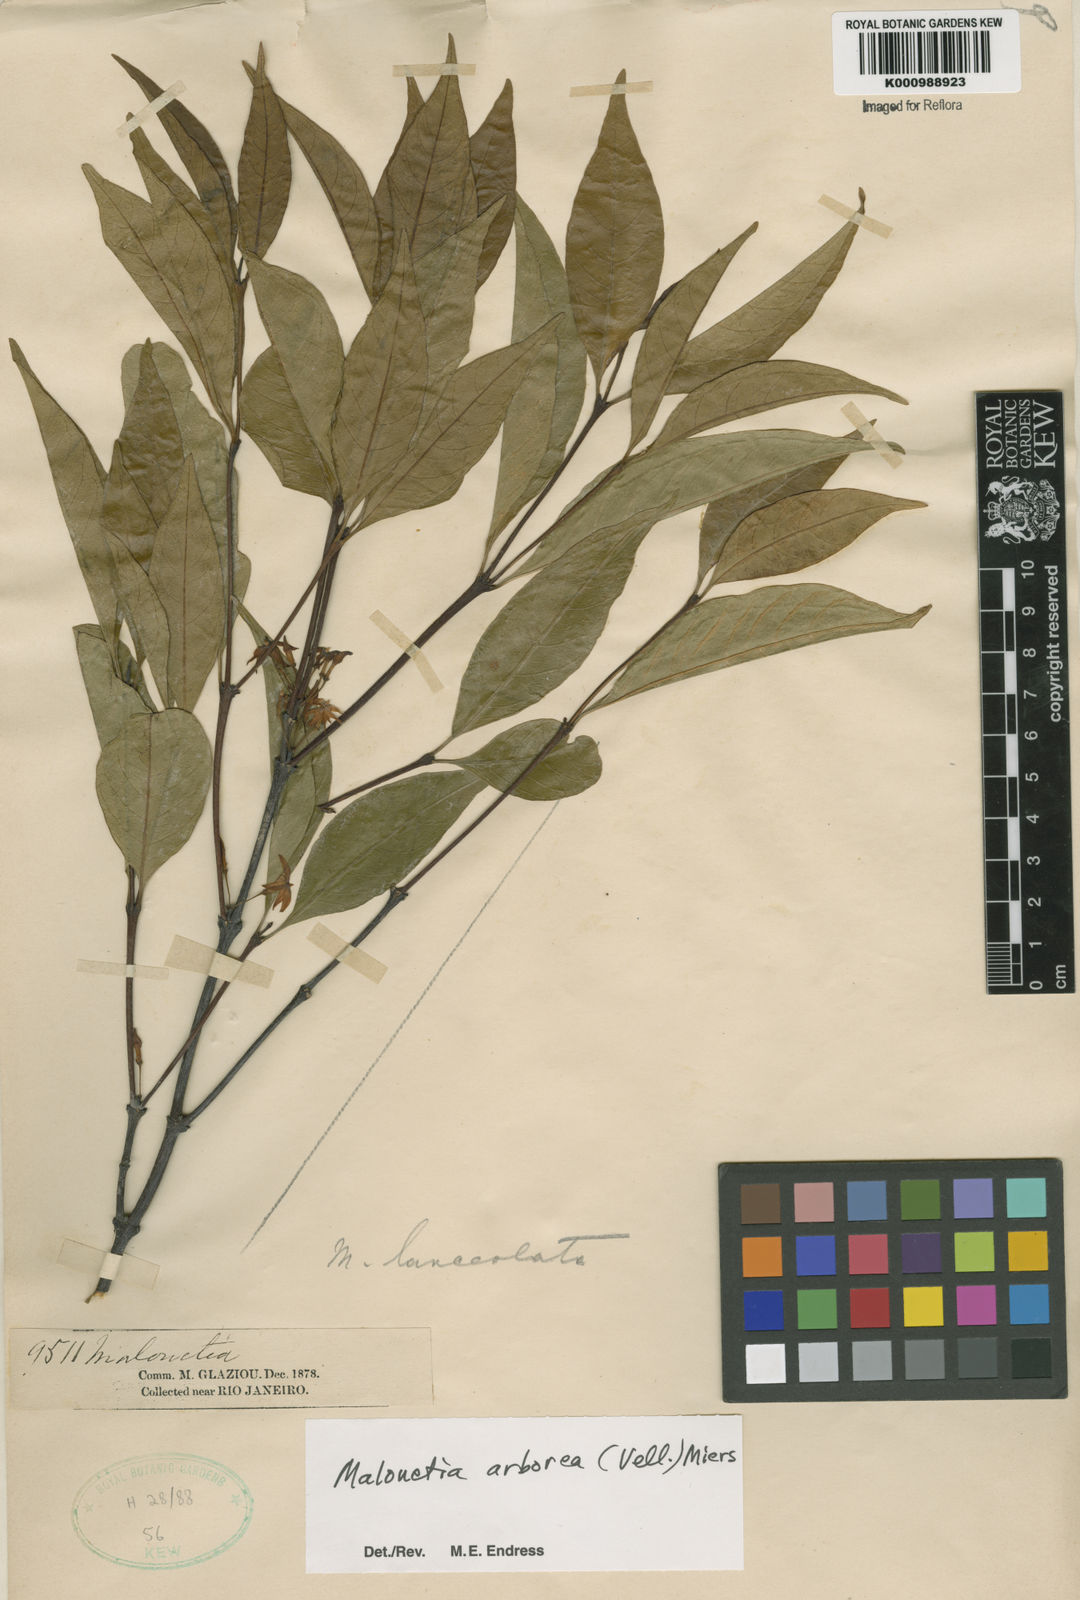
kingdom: Plantae
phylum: Tracheophyta
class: Magnoliopsida
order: Gentianales
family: Apocynaceae
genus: Malouetia
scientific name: Malouetia cestroides
